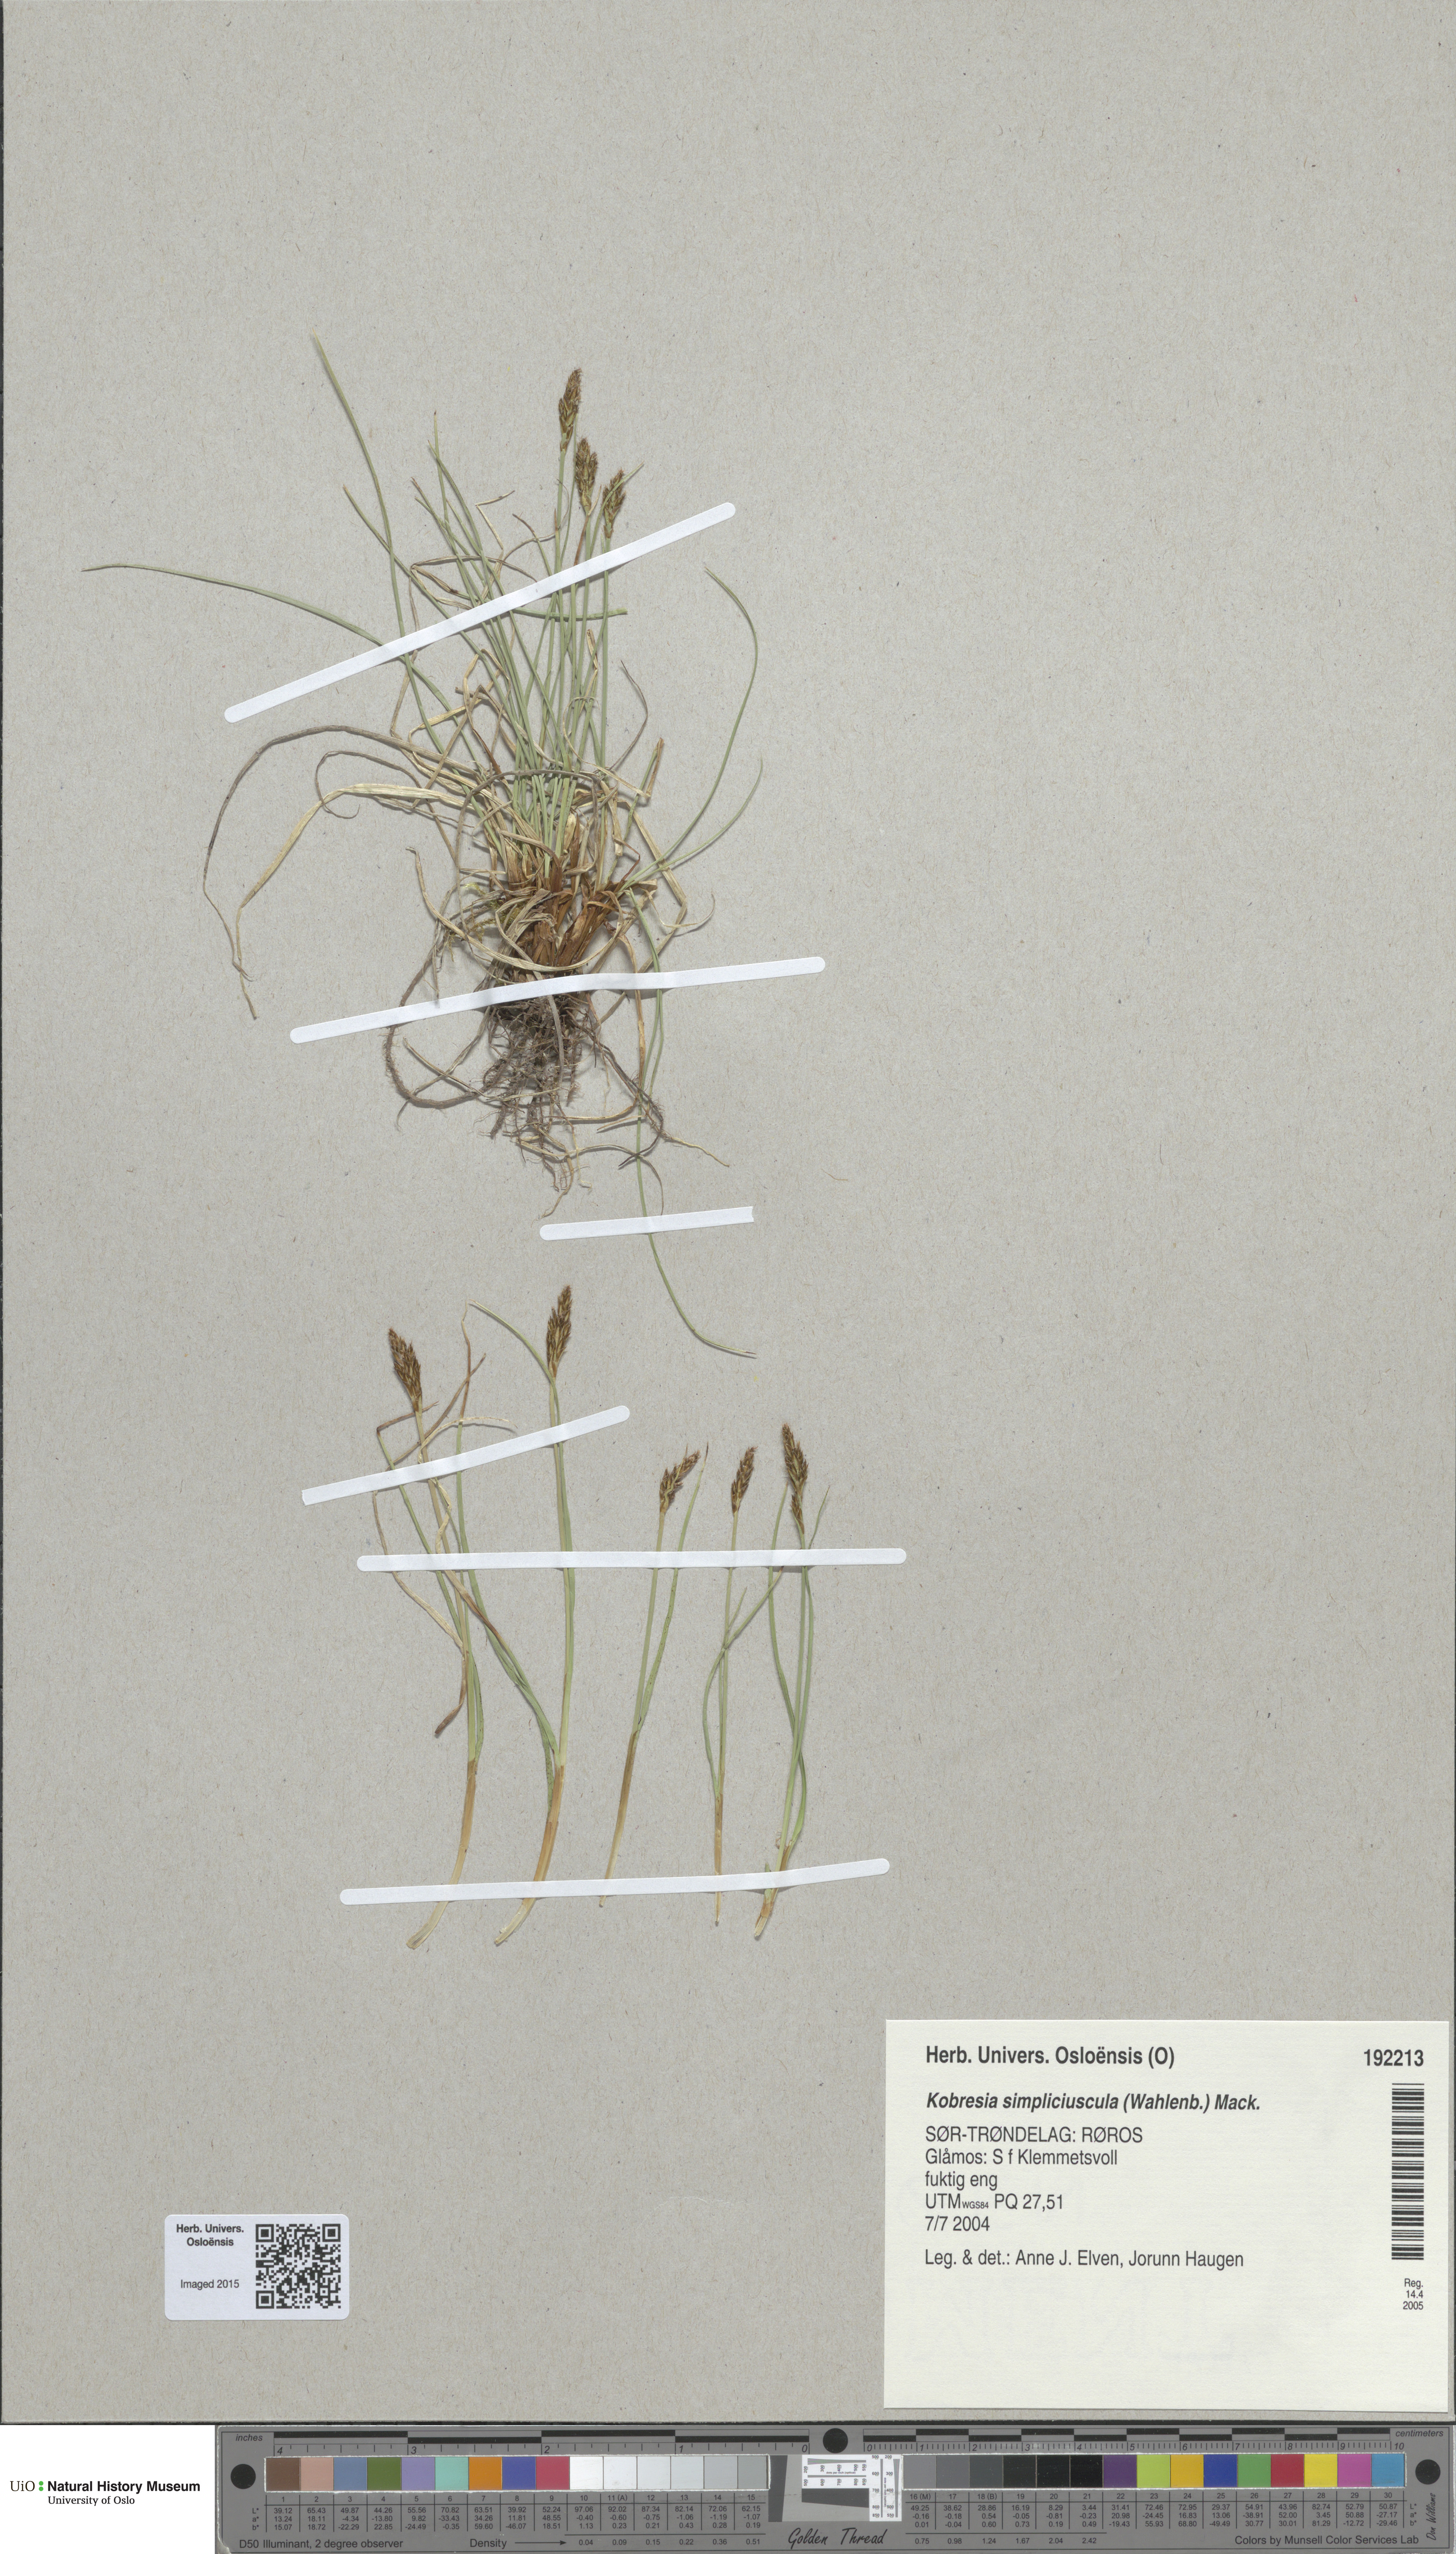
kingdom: Plantae
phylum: Tracheophyta
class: Liliopsida
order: Poales
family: Cyperaceae
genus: Carex
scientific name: Carex simpliciuscula
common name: Simple bog sedge
